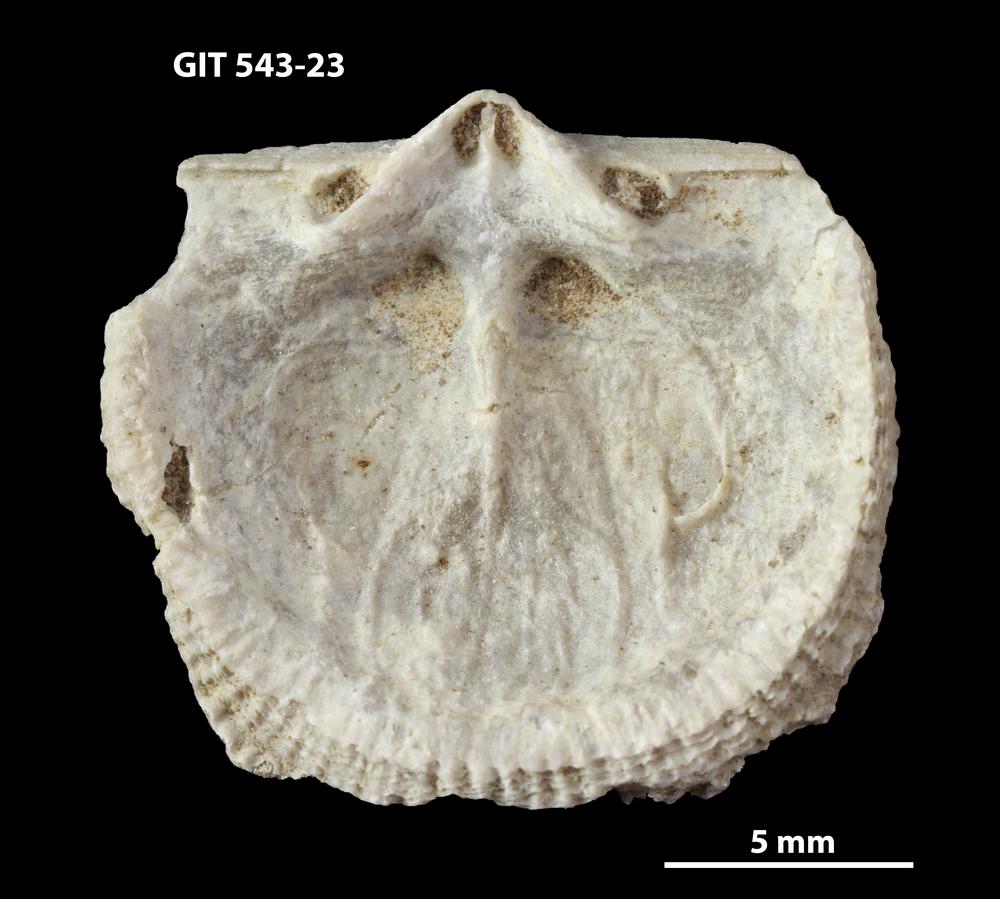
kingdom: Animalia
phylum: Brachiopoda
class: Rhynchonellata
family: Clitambonitidae
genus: Clitambonites
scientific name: Clitambonites
